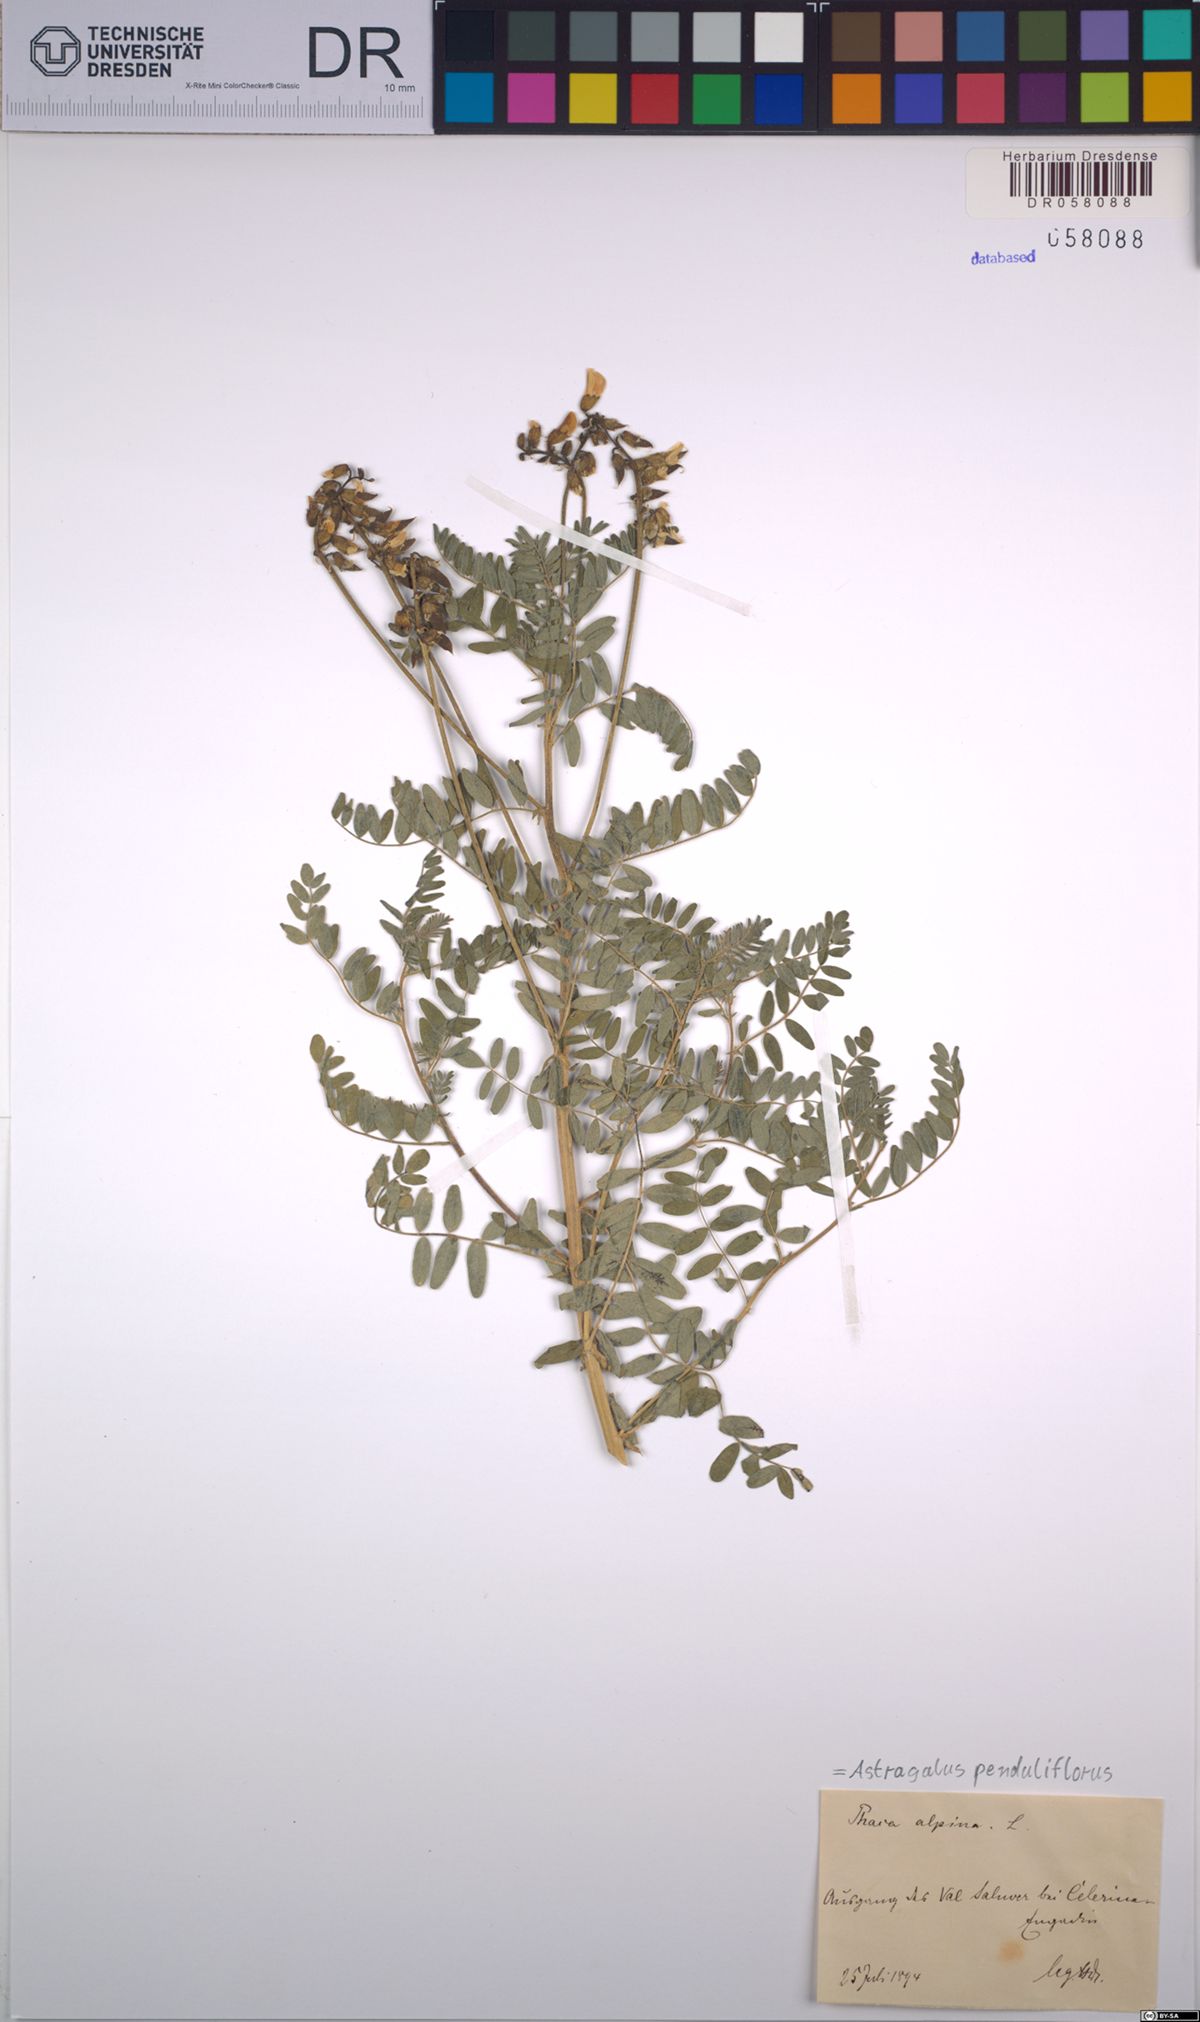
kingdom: Plantae
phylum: Tracheophyta
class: Magnoliopsida
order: Fabales
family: Fabaceae
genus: Astragalus
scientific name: Astragalus penduliflorus
